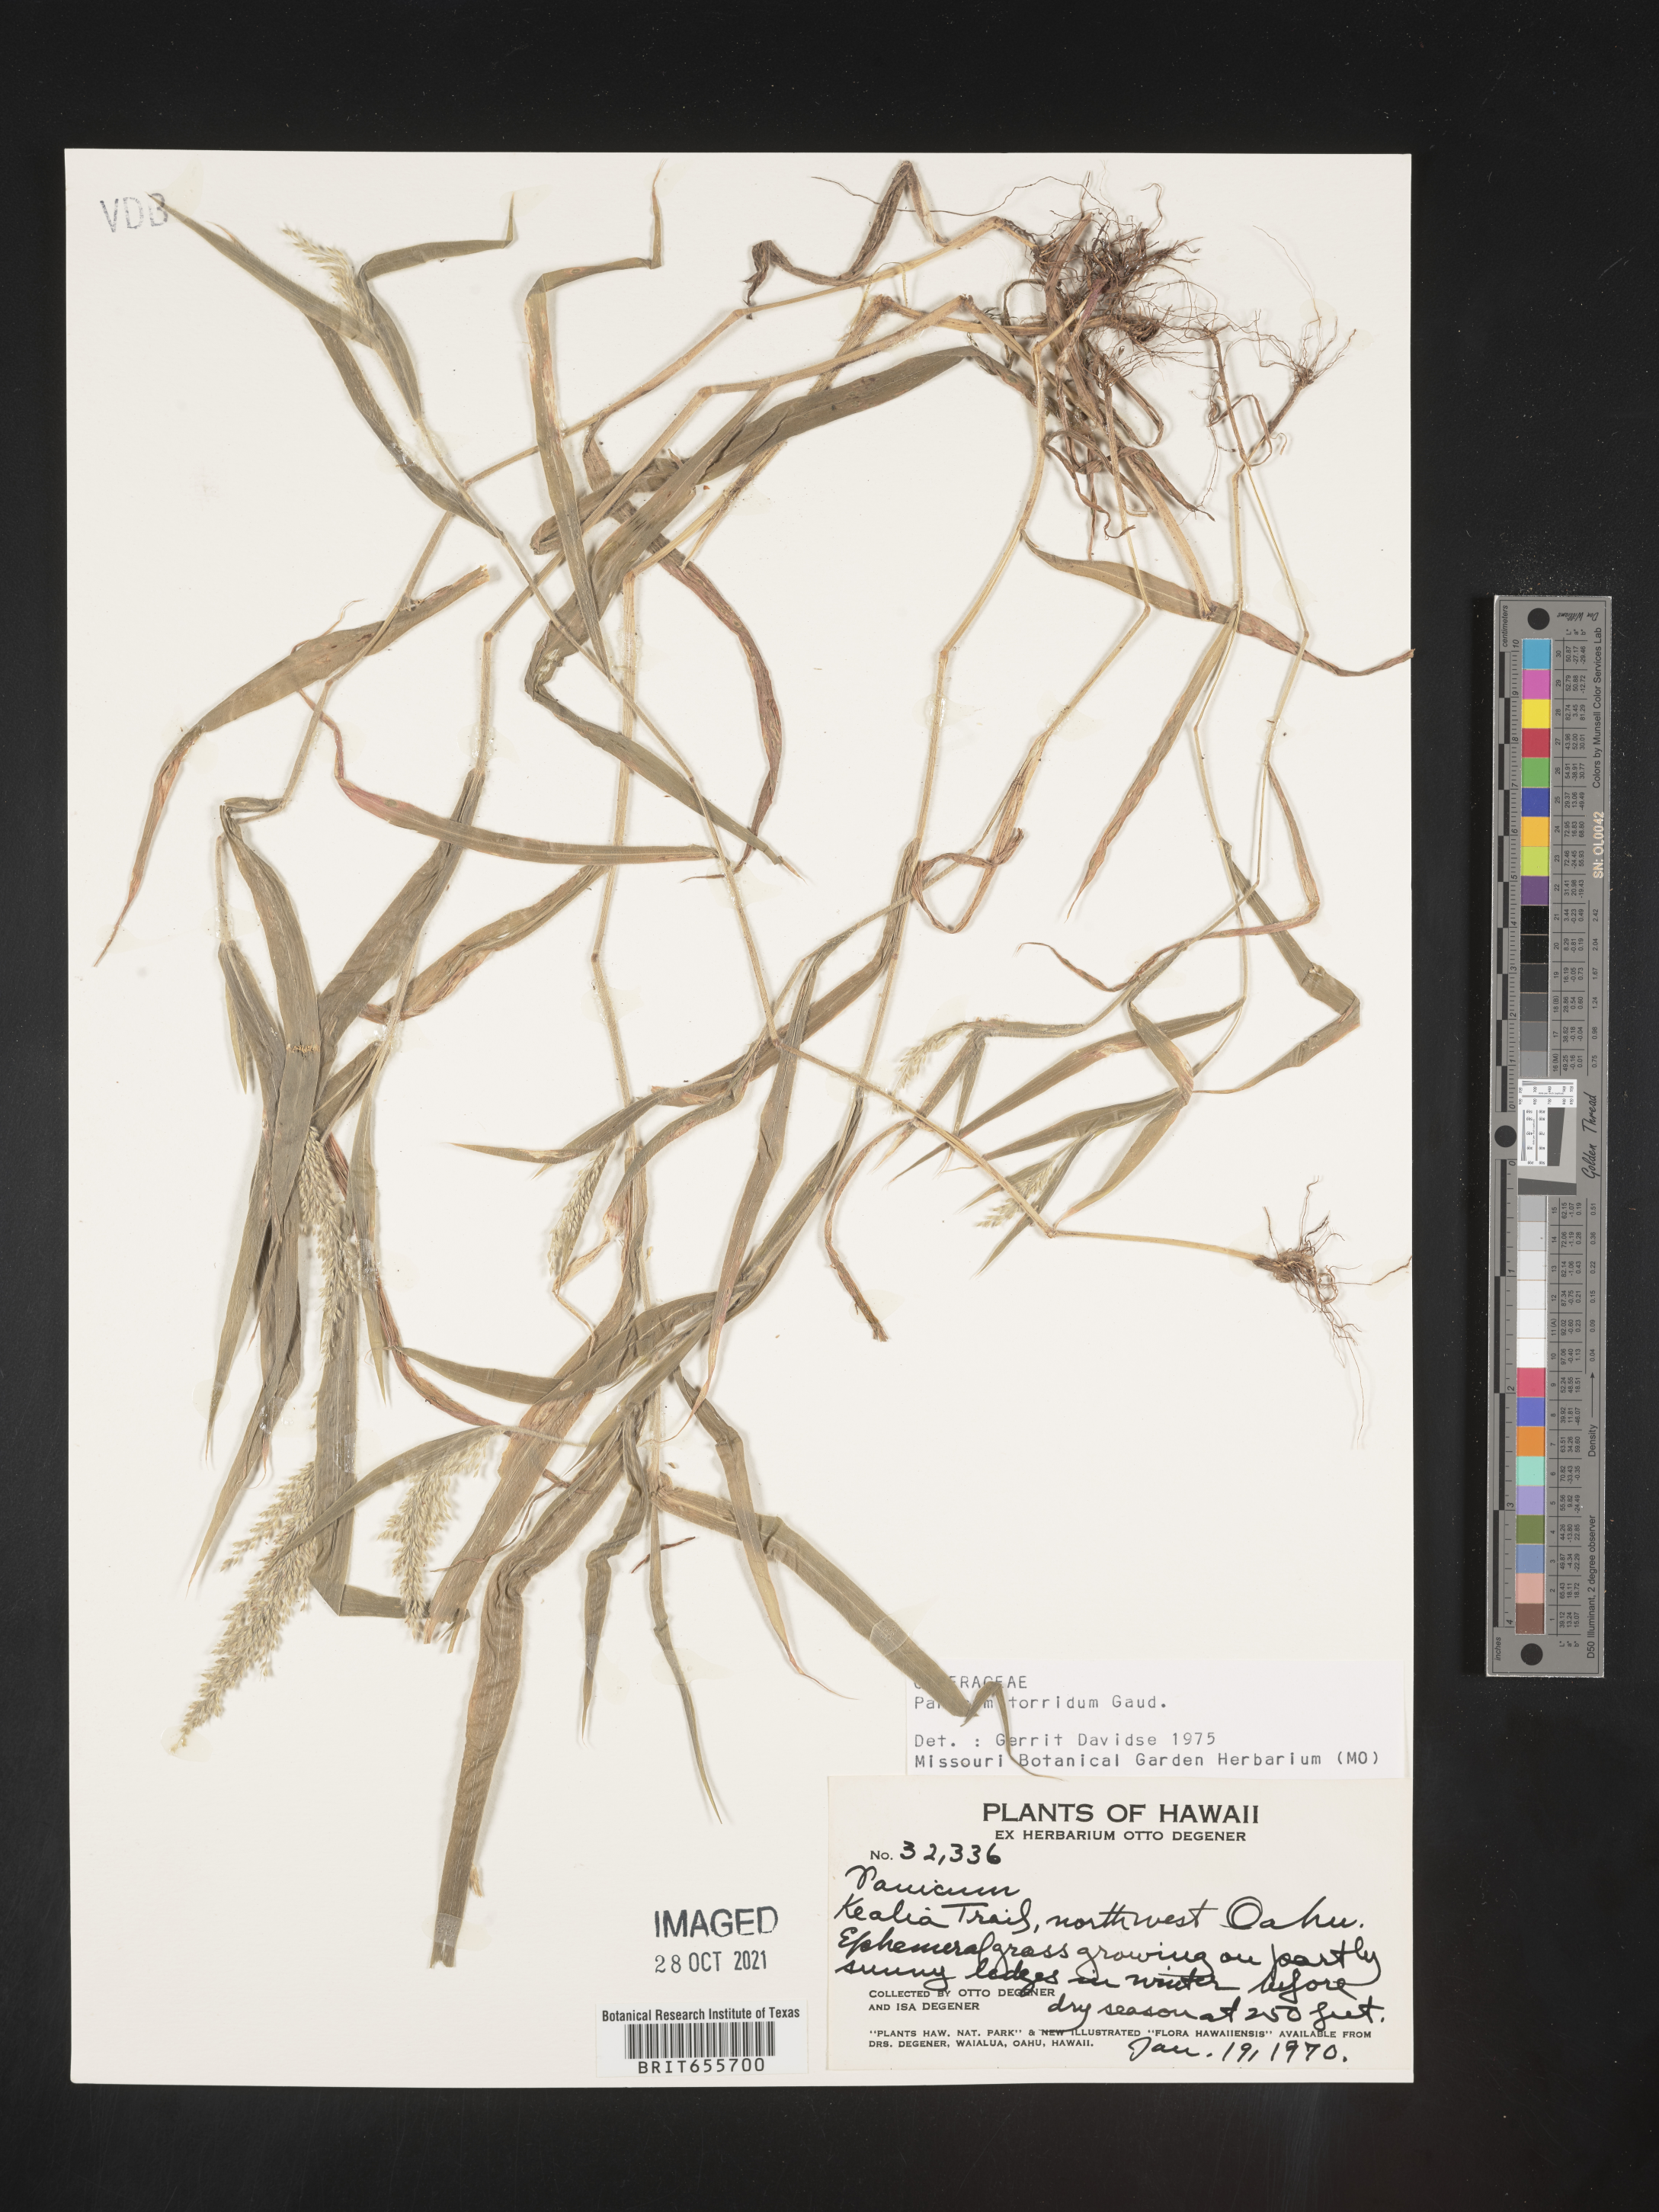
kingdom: Plantae
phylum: Tracheophyta
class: Liliopsida
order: Poales
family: Poaceae
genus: Panicum
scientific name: Panicum
